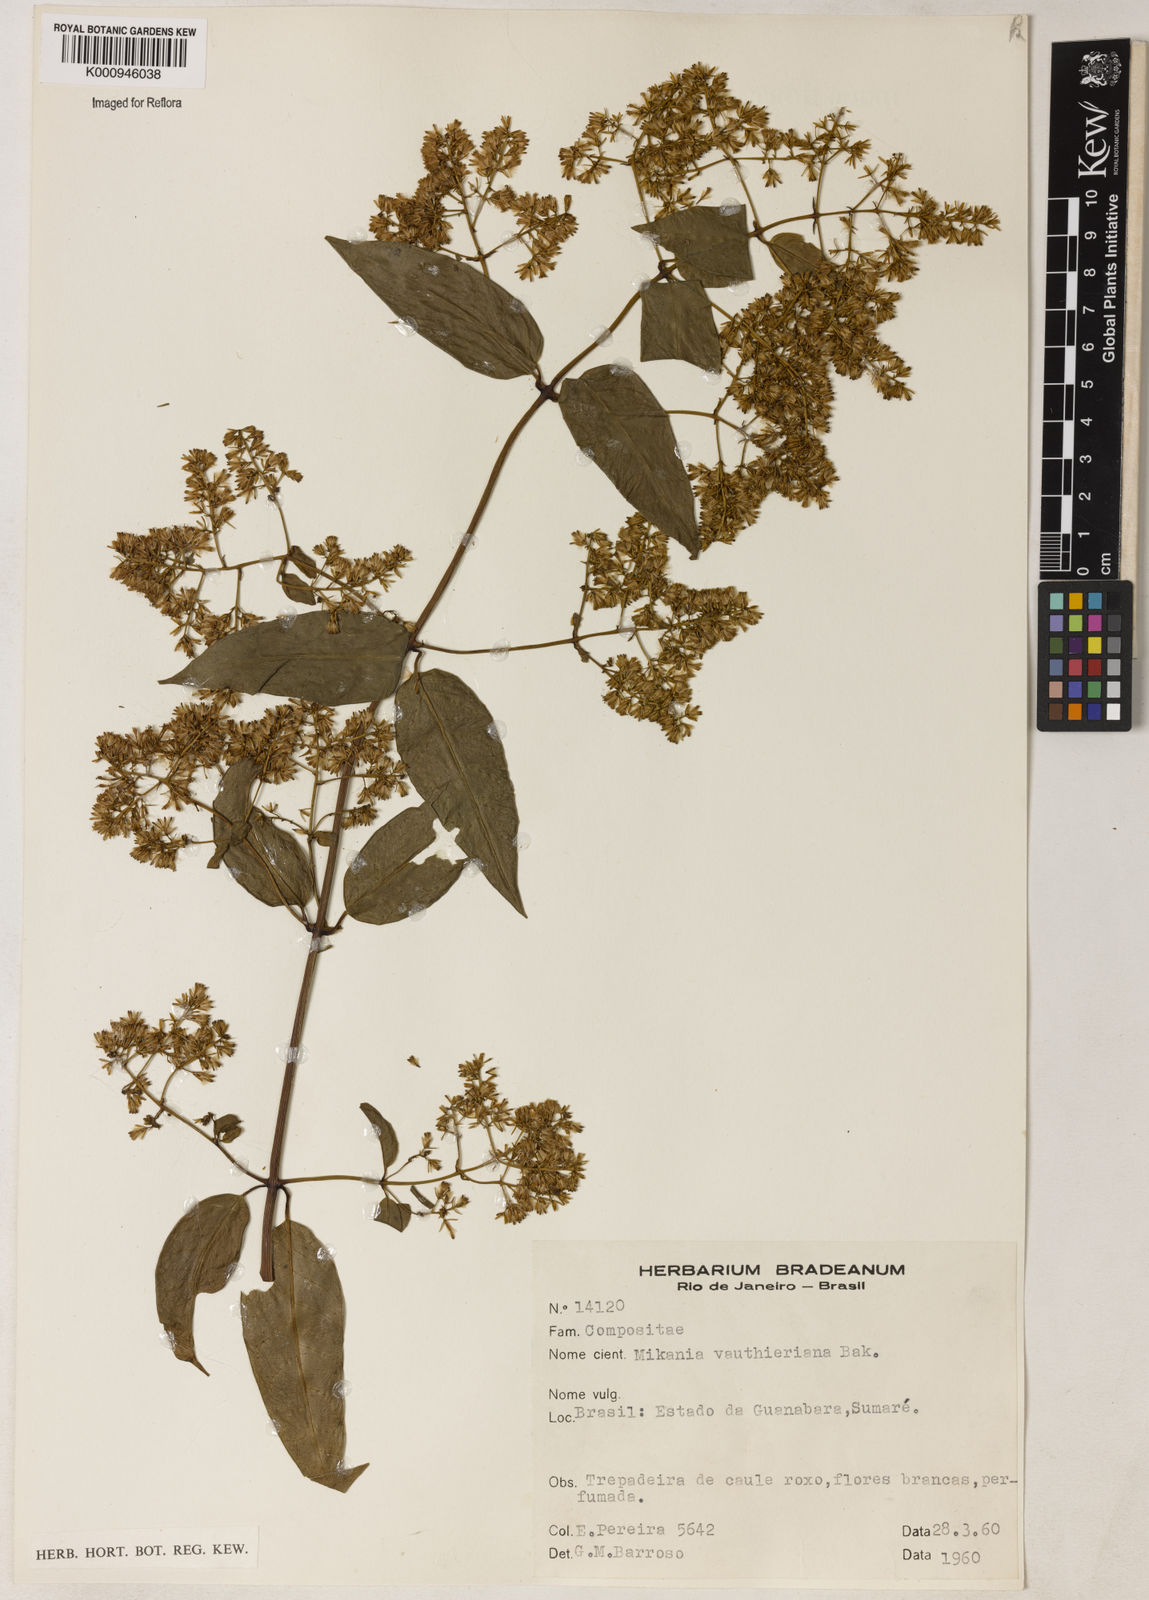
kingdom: Plantae
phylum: Tracheophyta
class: Magnoliopsida
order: Asterales
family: Asteraceae
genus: Mikania
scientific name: Mikania vauthieriana
